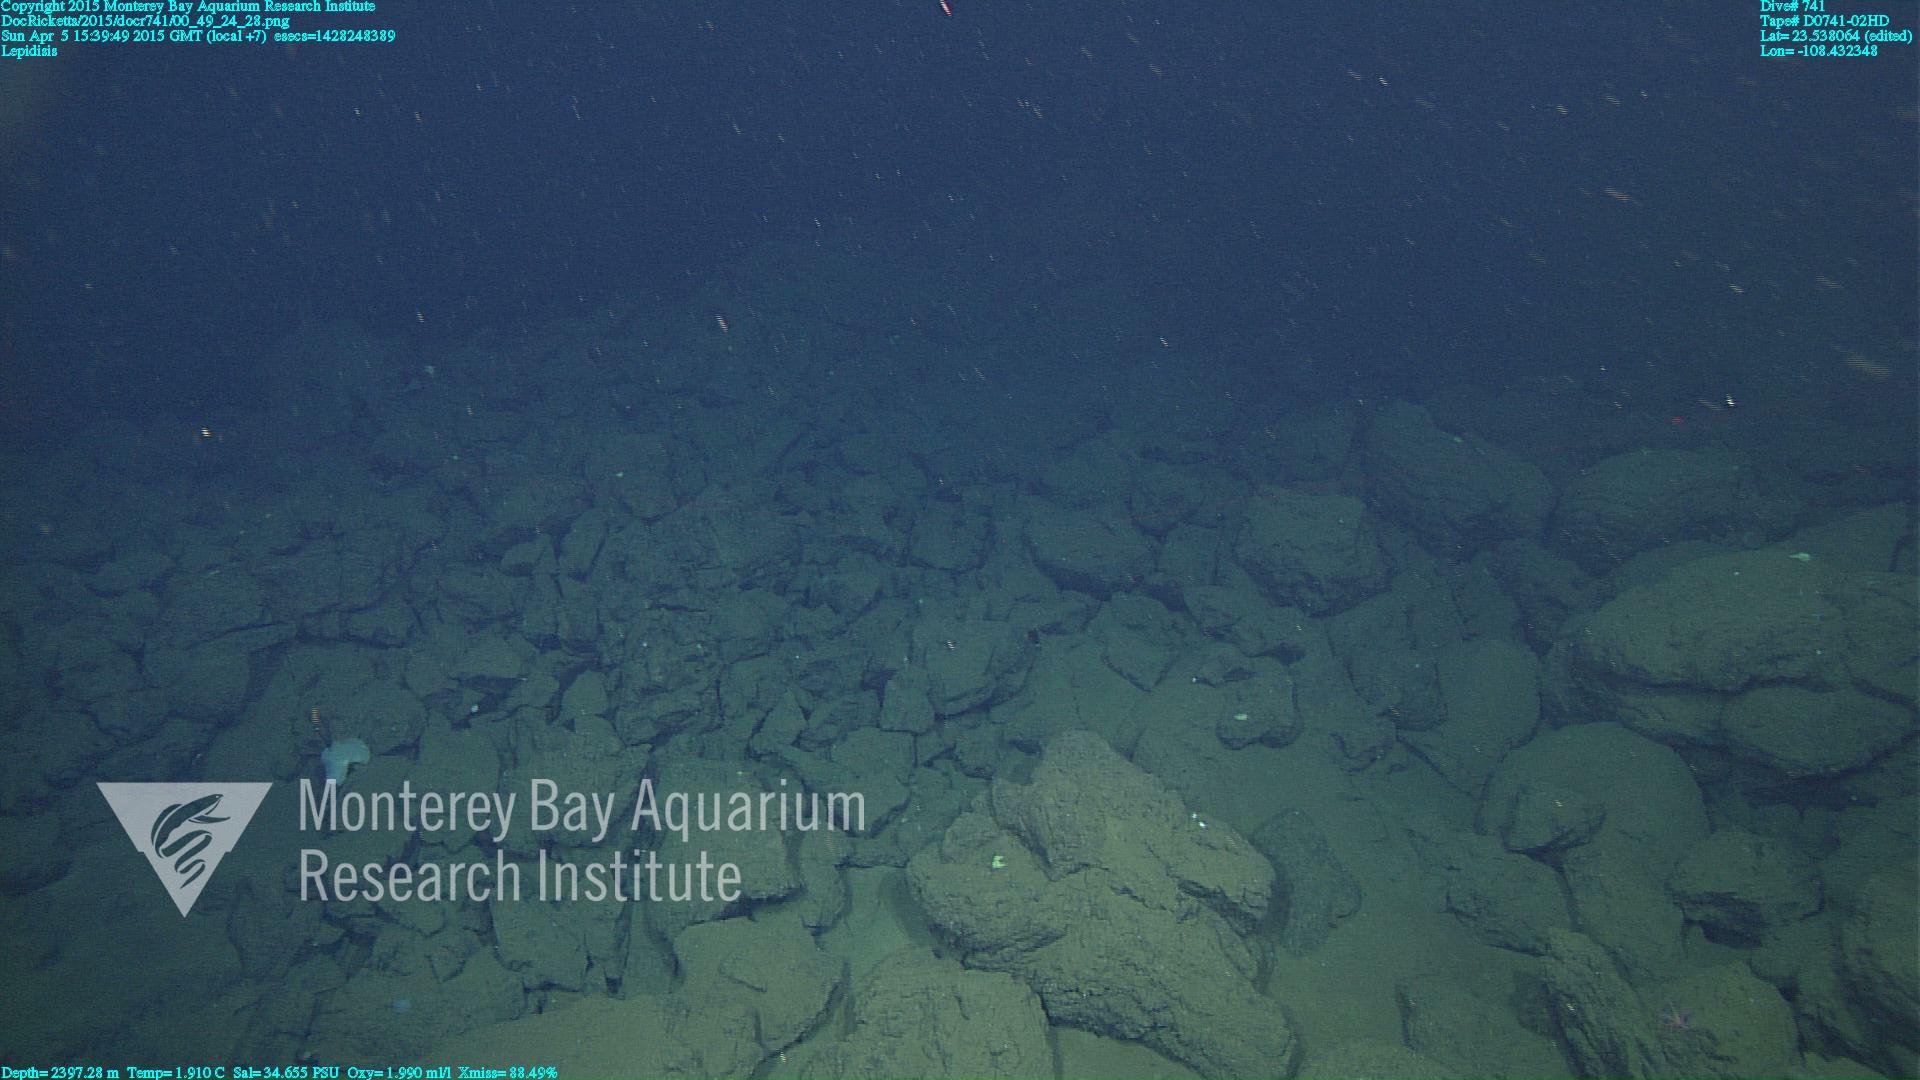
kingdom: Animalia
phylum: Cnidaria
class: Anthozoa
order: Scleralcyonacea
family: Keratoisididae
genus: Lepidisis
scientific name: Lepidisis
